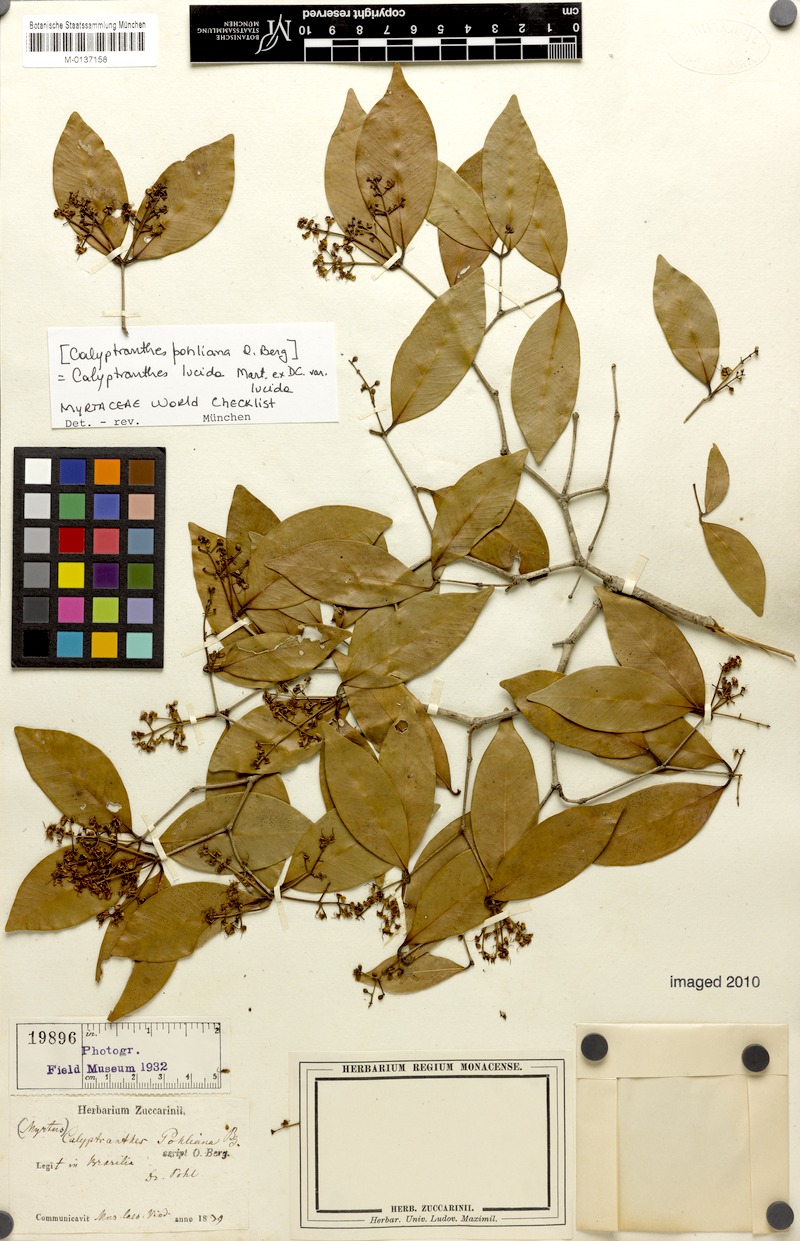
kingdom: Plantae
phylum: Tracheophyta
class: Magnoliopsida
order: Myrtales
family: Myrtaceae
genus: Myrcia
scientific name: Myrcia neolucida
